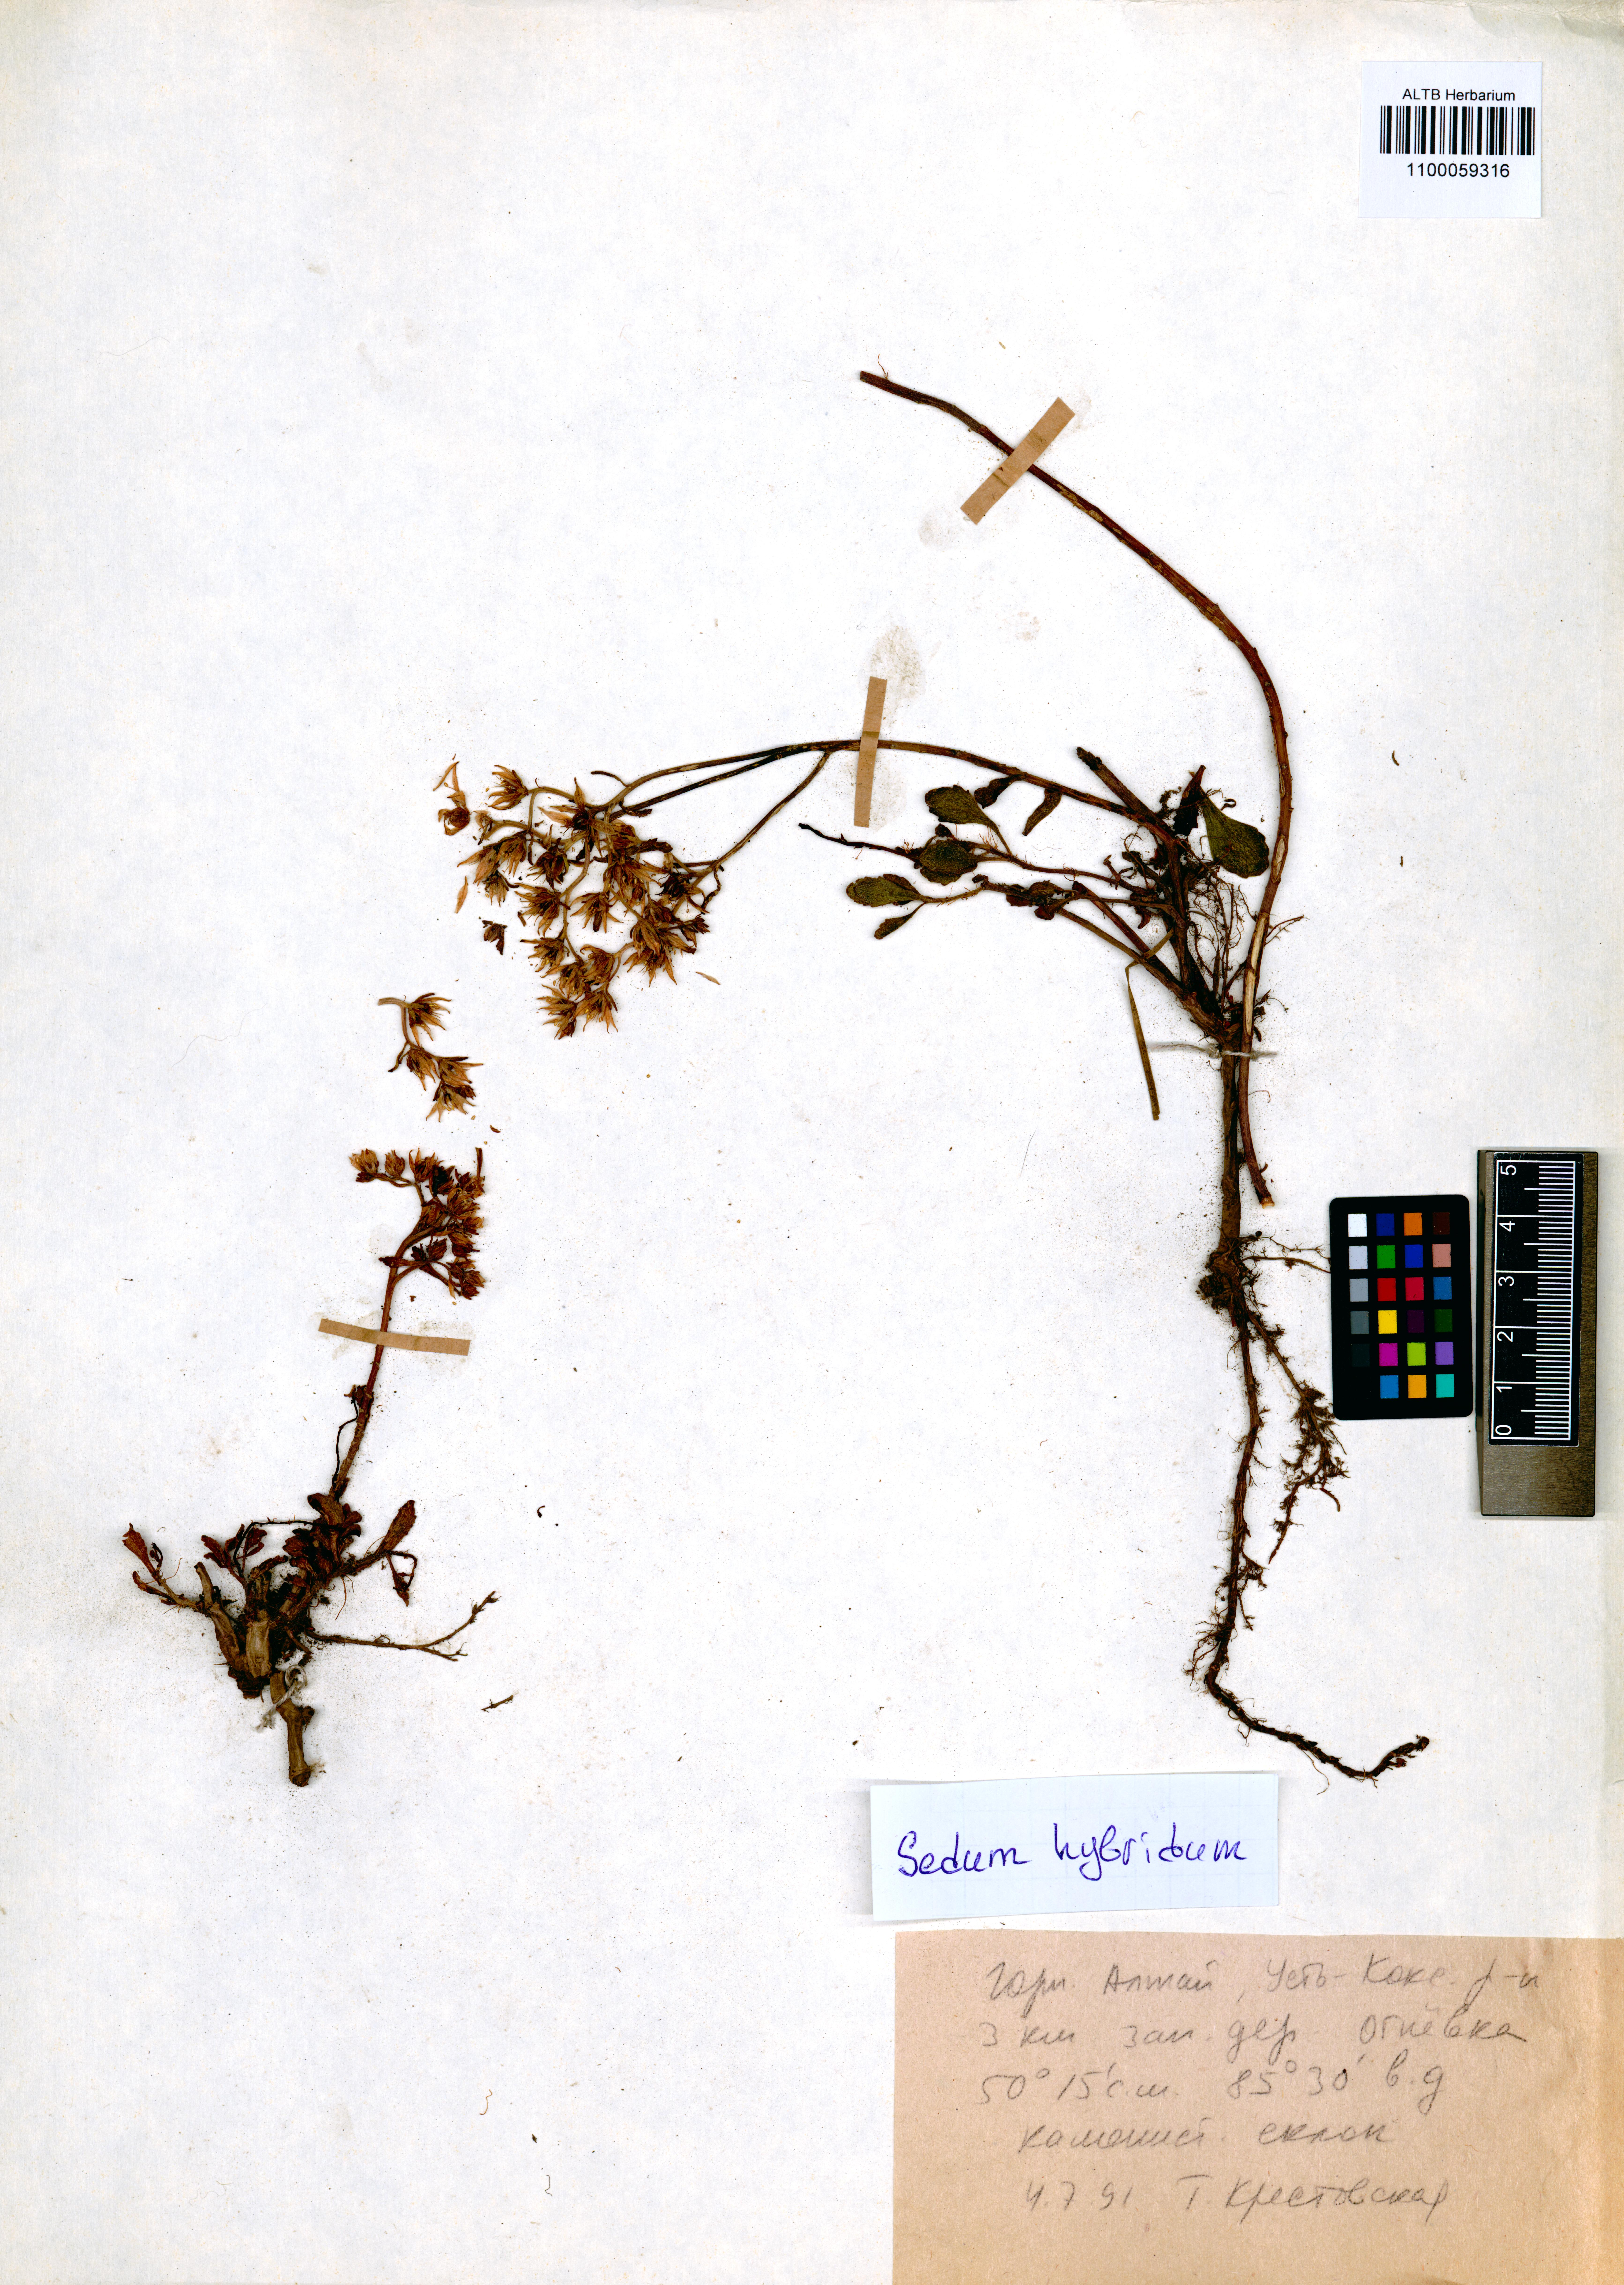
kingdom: Plantae
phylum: Tracheophyta
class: Magnoliopsida
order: Saxifragales
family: Crassulaceae
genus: Phedimus
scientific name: Phedimus hybridus
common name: Hybrid stonecrop
